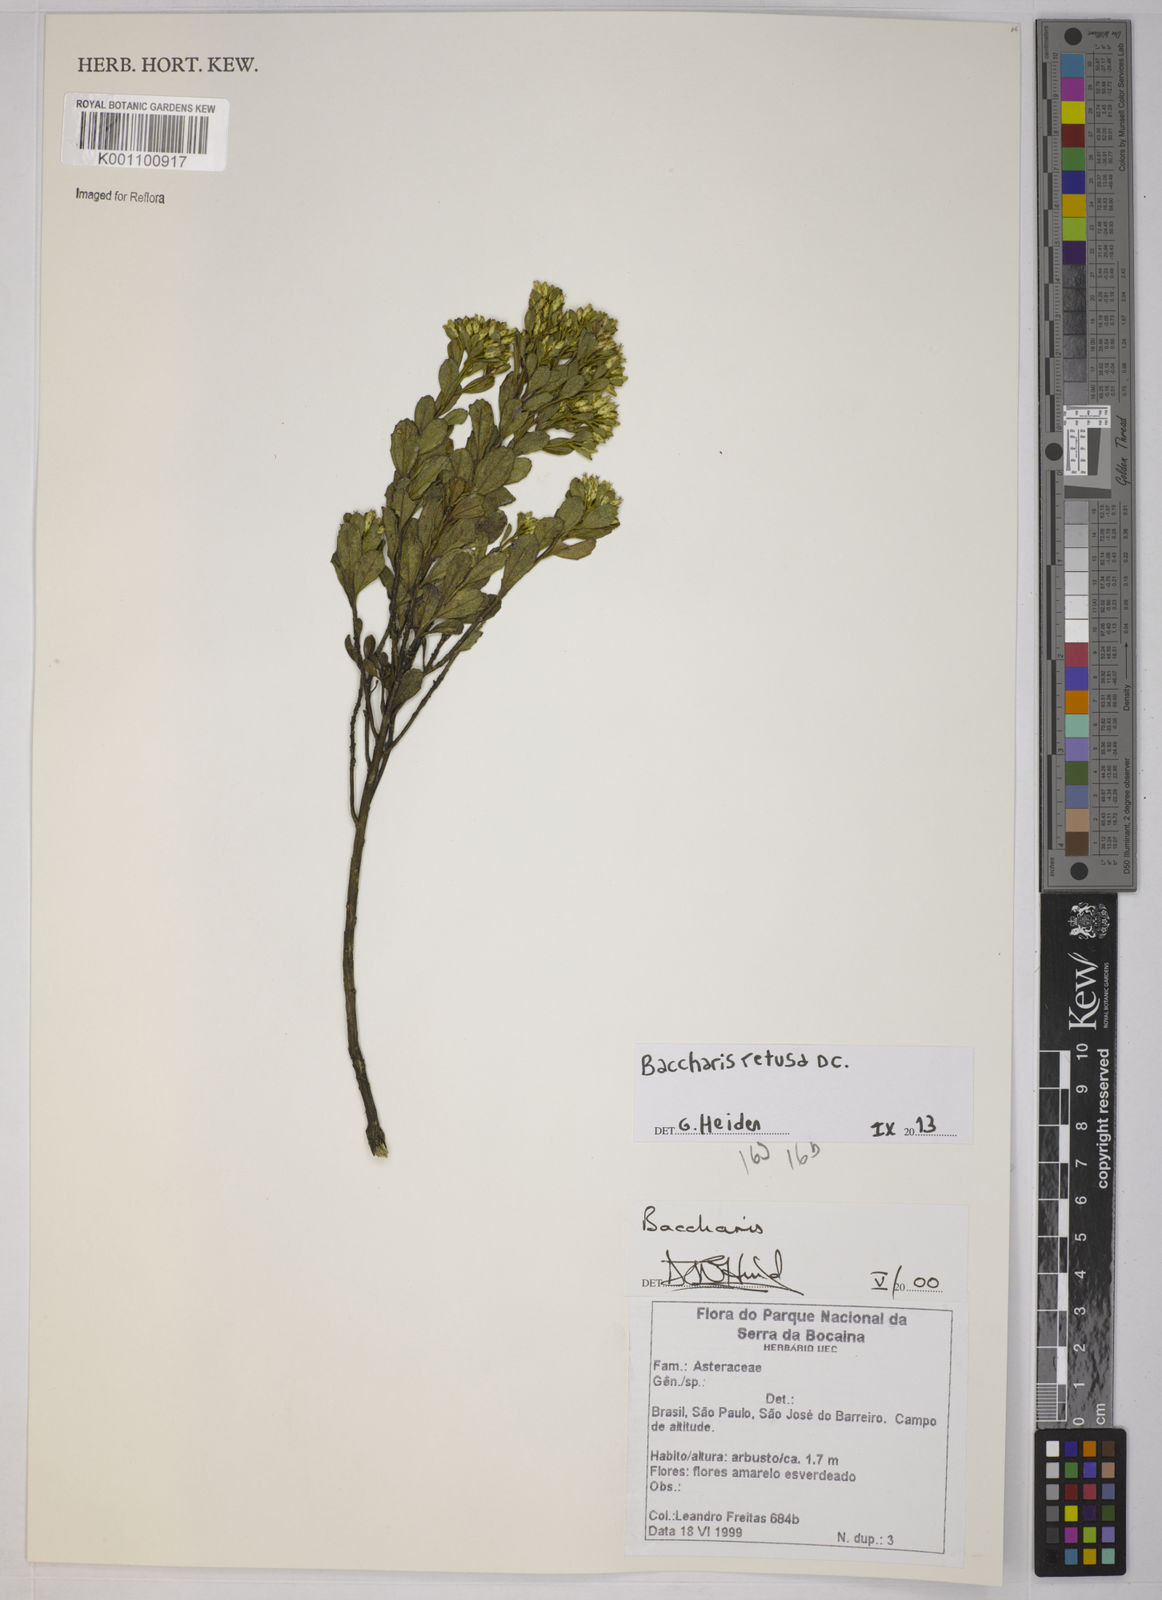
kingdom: Plantae
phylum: Tracheophyta
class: Magnoliopsida
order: Asterales
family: Asteraceae
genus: Baccharis
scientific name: Baccharis retusa
